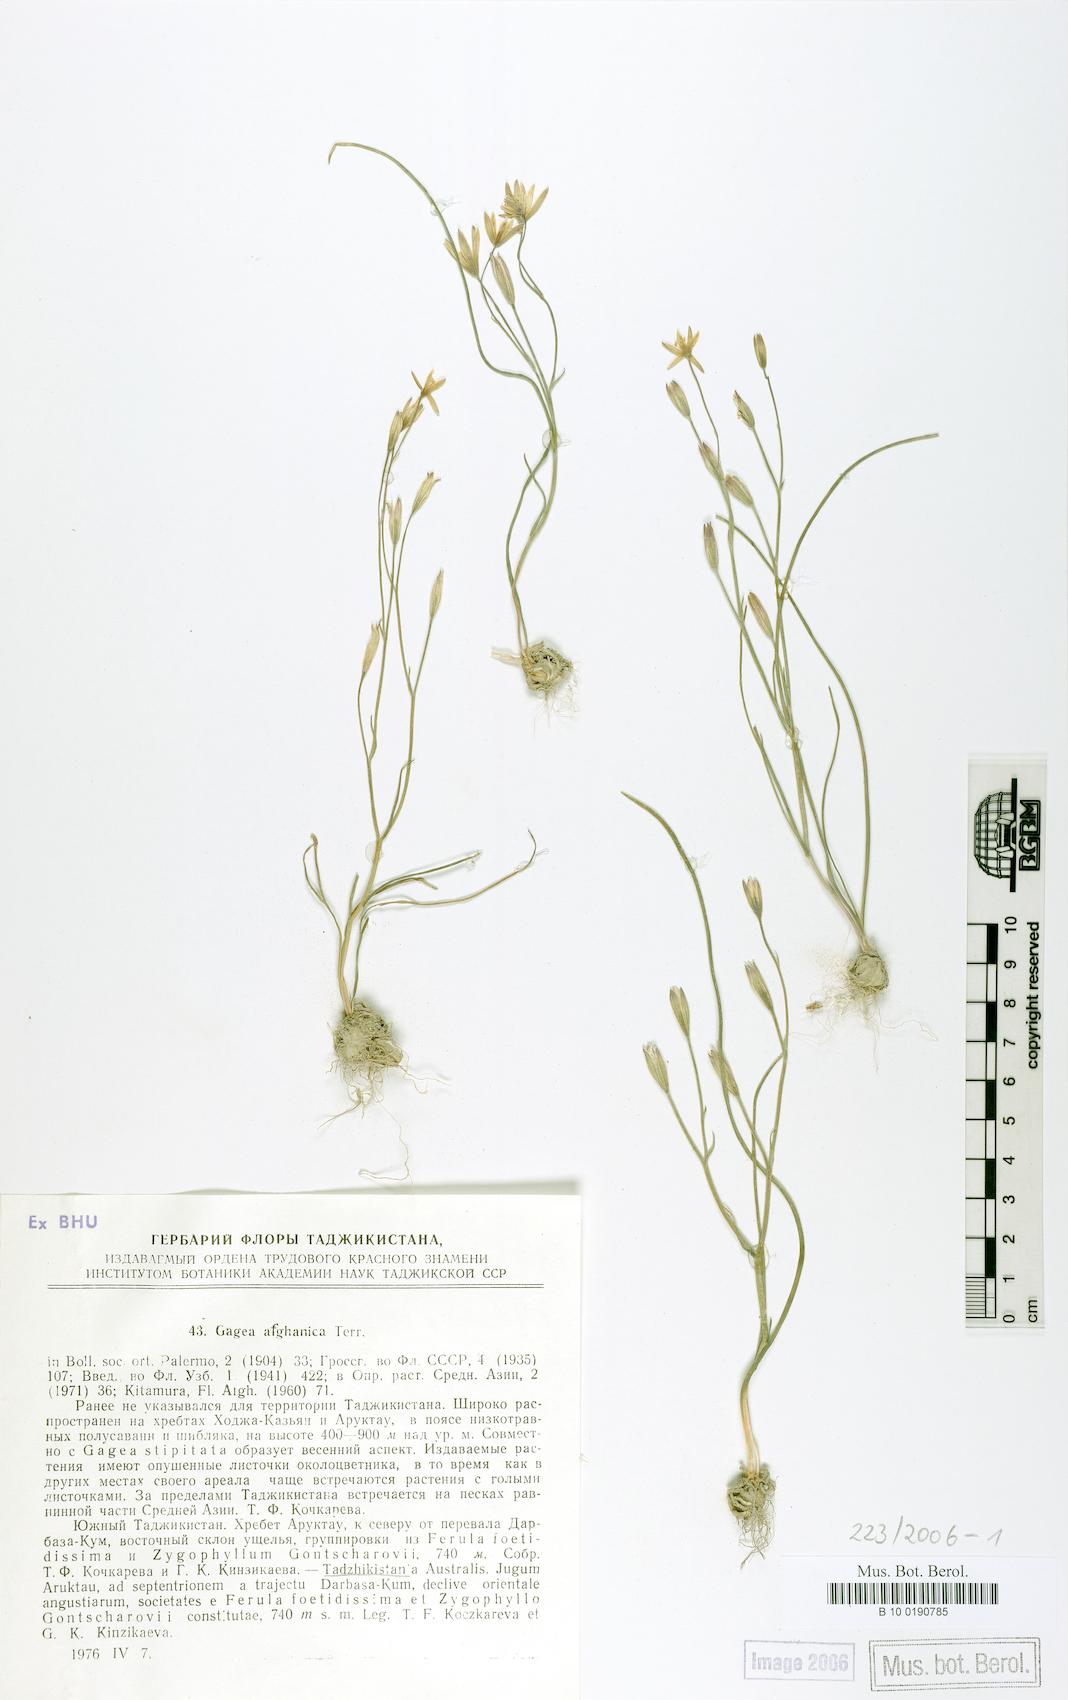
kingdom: Plantae
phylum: Tracheophyta
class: Liliopsida
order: Liliales
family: Liliaceae
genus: Gagea
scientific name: Gagea afghanica
